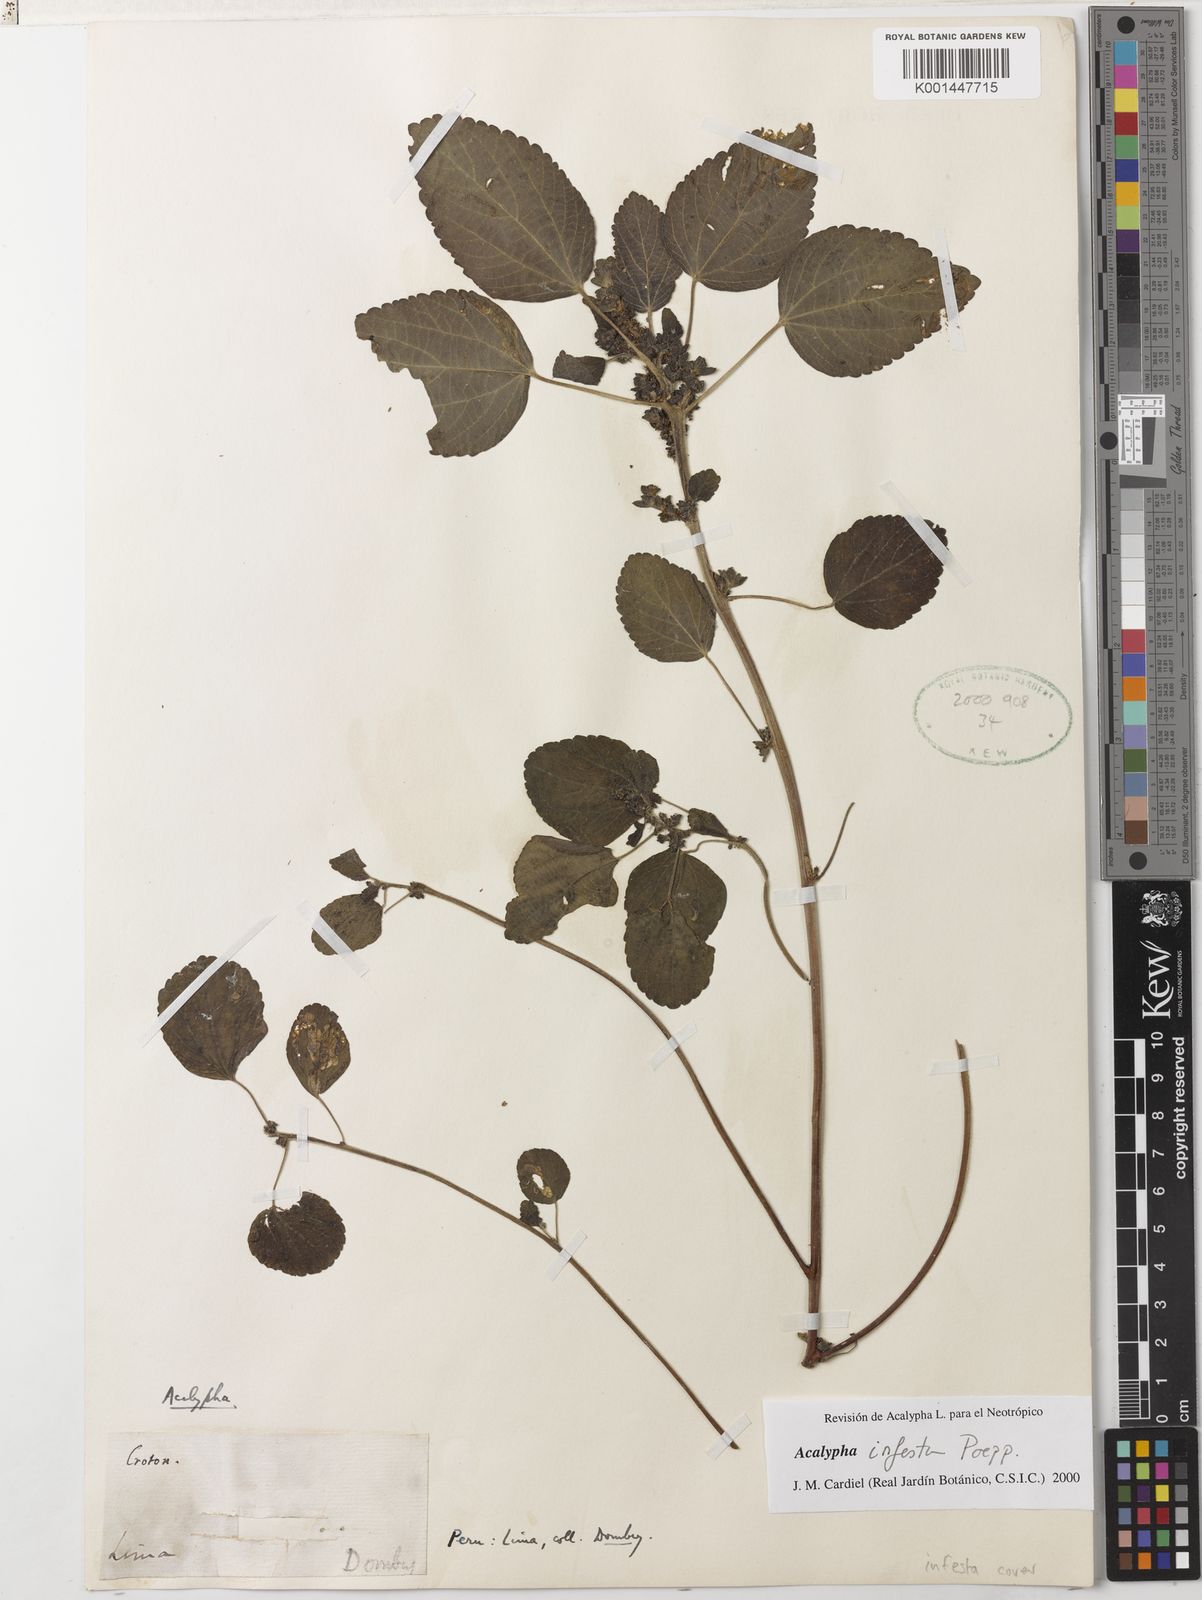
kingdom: Plantae
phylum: Tracheophyta
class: Magnoliopsida
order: Malpighiales
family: Euphorbiaceae
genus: Acalypha
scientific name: Acalypha infesta
